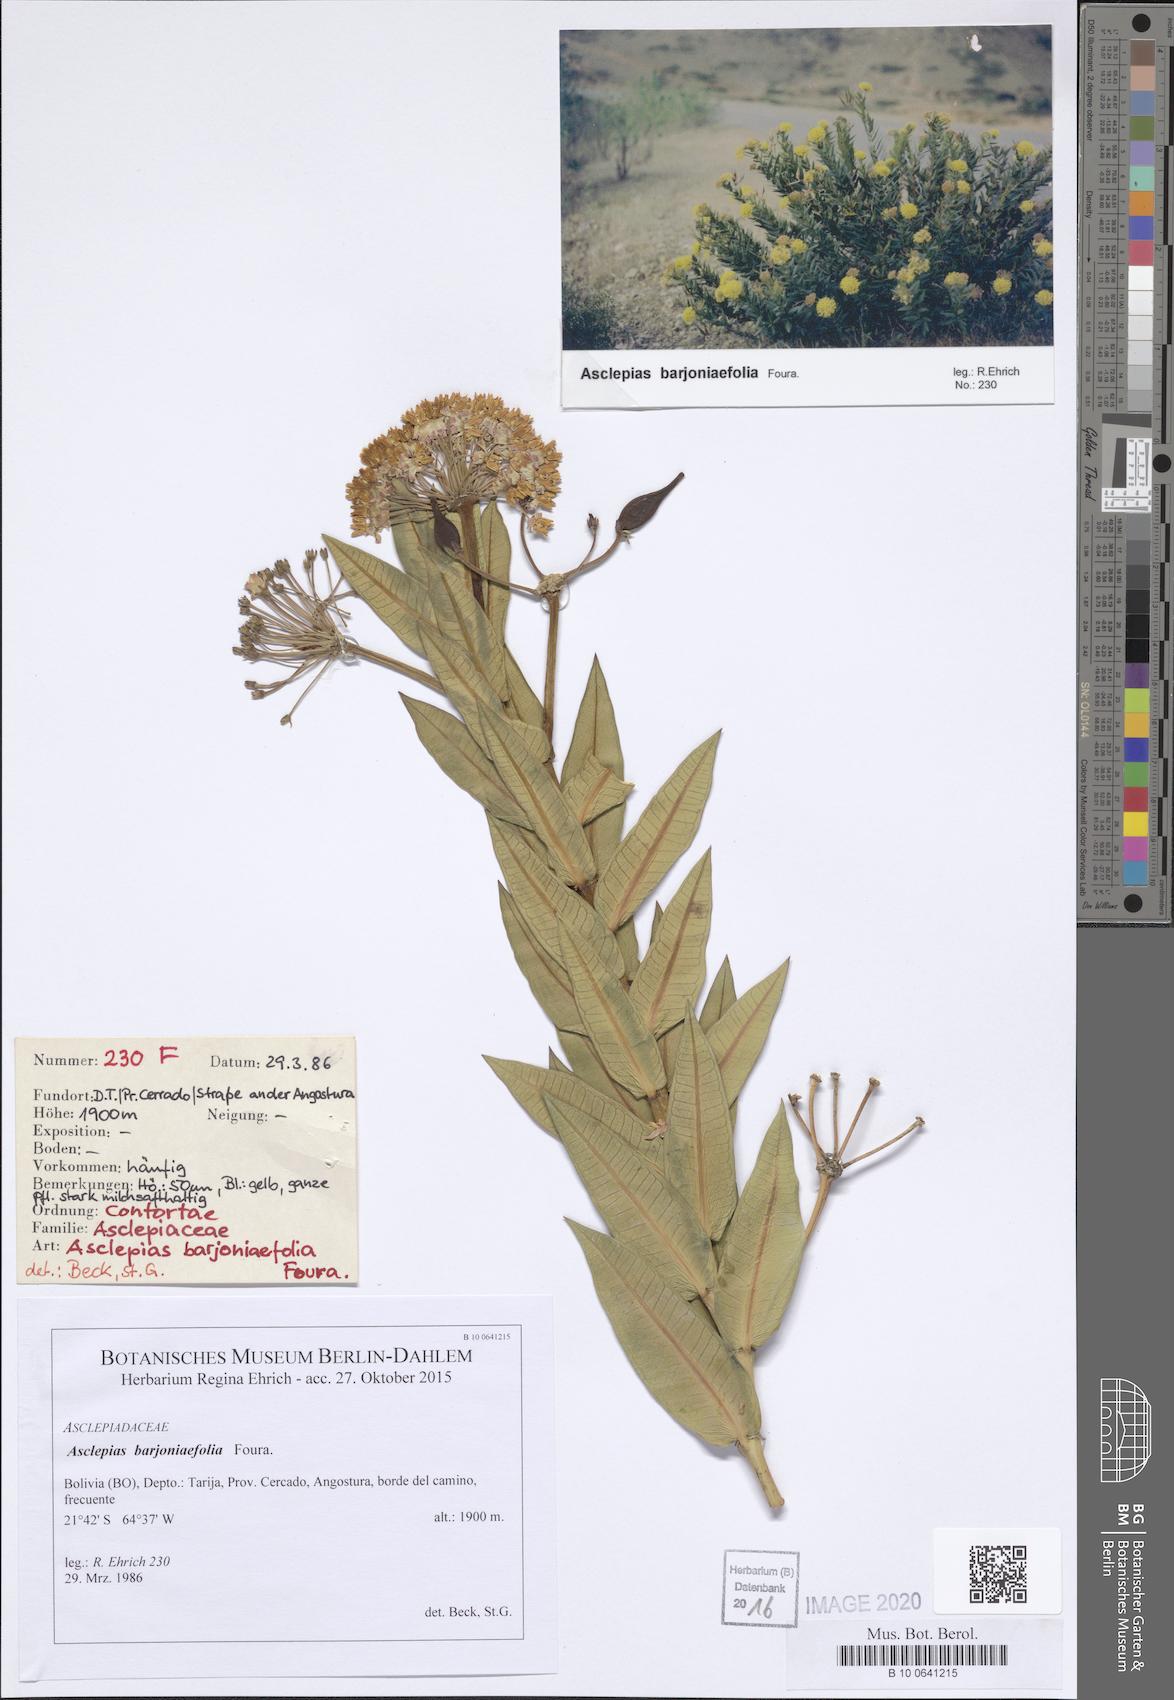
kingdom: Plantae
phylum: Tracheophyta
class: Magnoliopsida
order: Gentianales
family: Apocynaceae
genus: Asclepias
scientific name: Asclepias barjoniifolia
